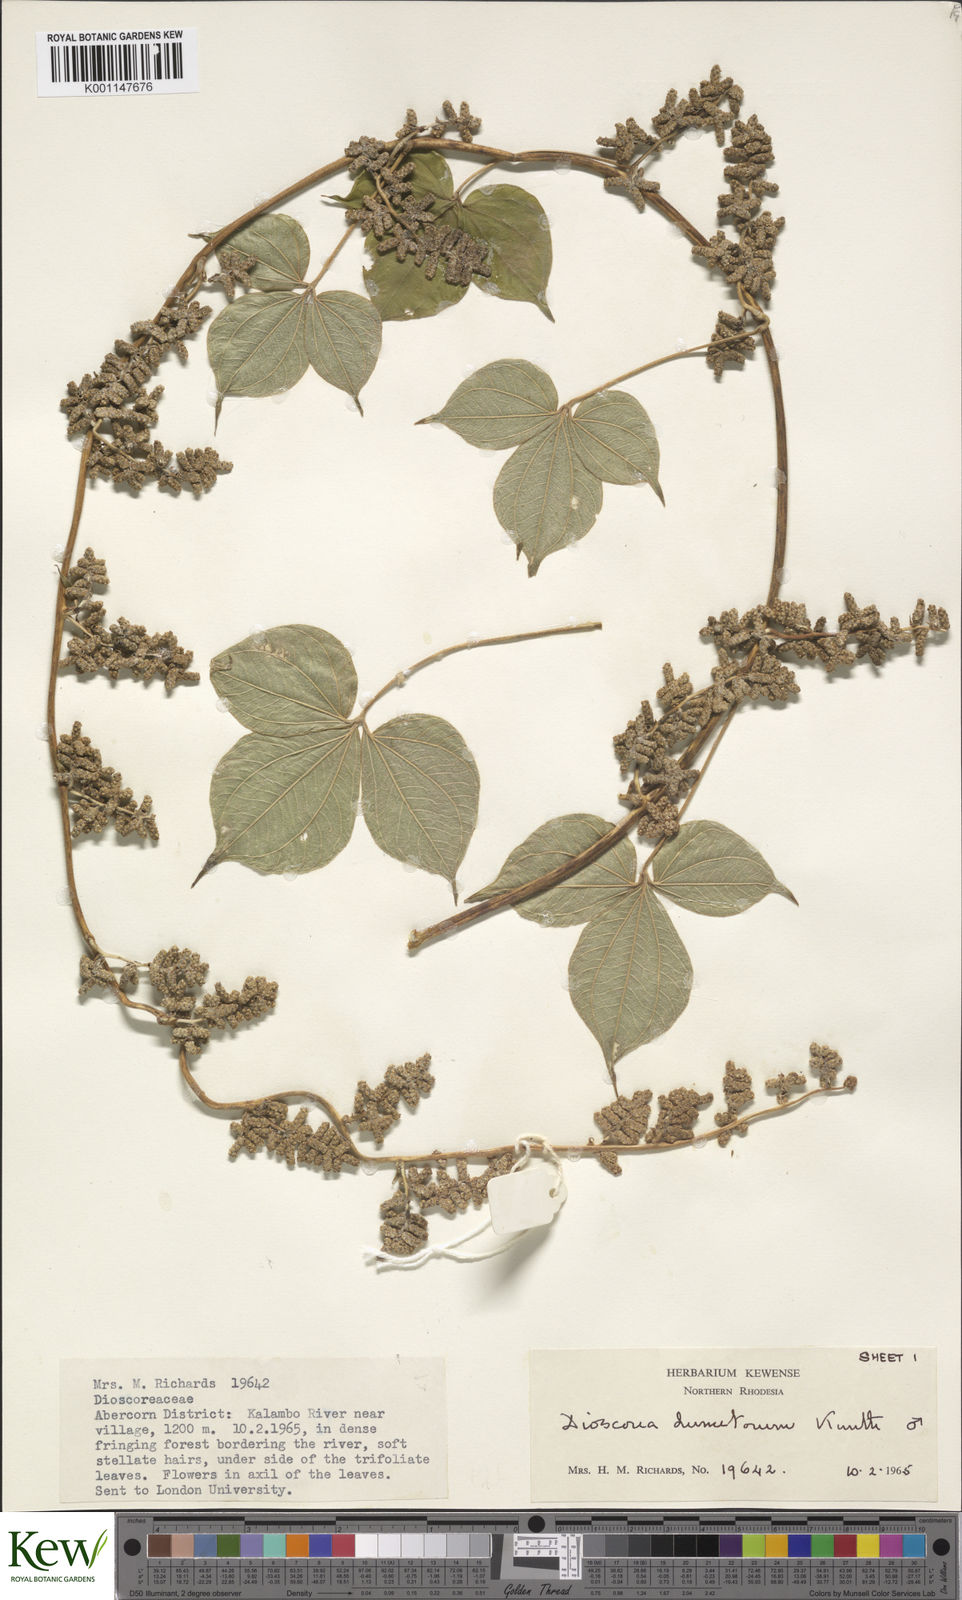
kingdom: Plantae
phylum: Tracheophyta
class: Liliopsida
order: Dioscoreales
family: Dioscoreaceae
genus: Dioscorea
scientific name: Dioscorea dumetorum
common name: African bitter yam
